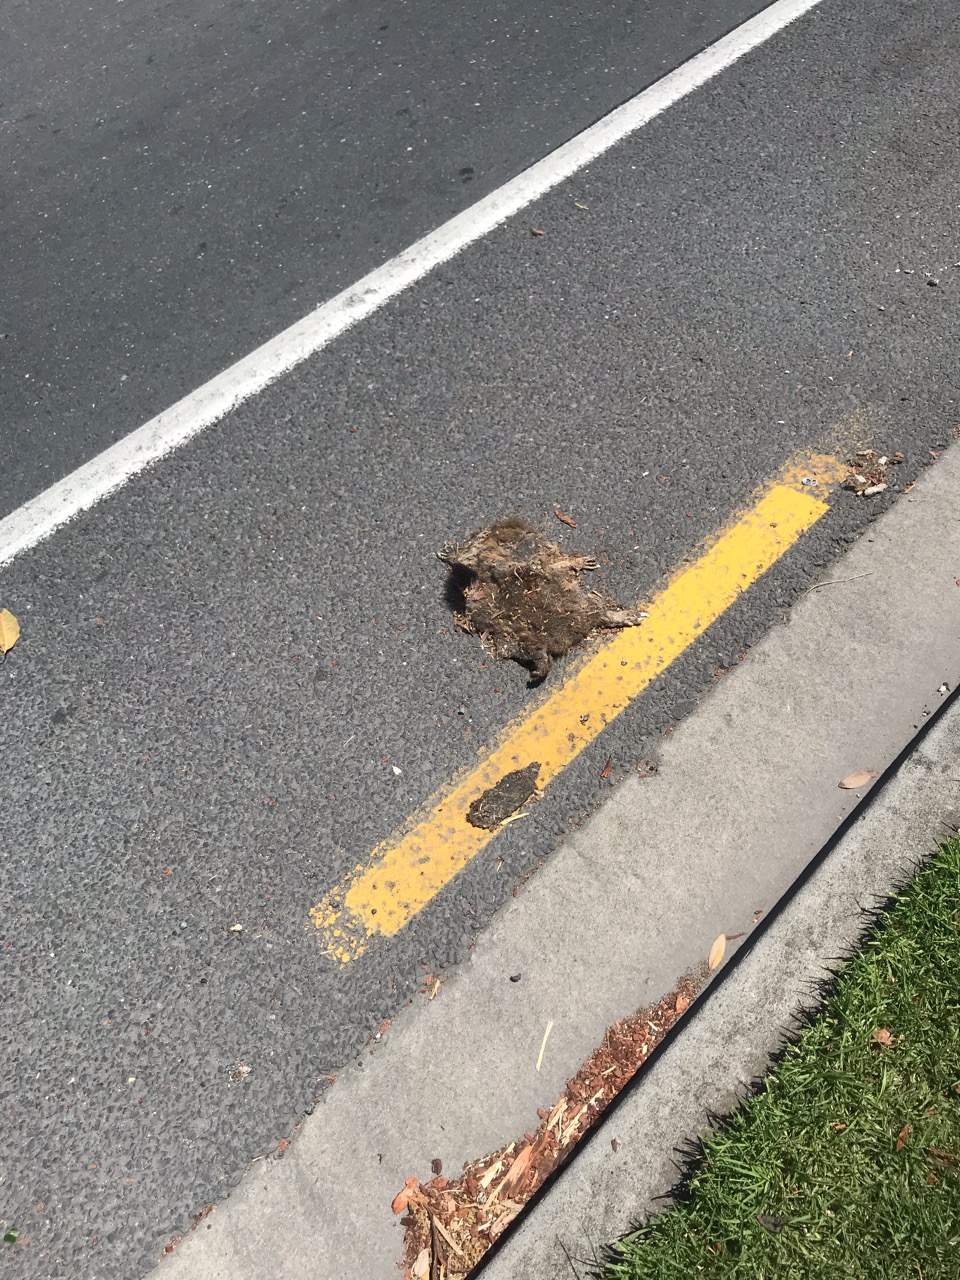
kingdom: Animalia
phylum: Chordata
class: Mammalia
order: Diprotodontia
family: Phalangeridae
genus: Trichosurus
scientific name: Trichosurus vulpecula
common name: Common brushtail
